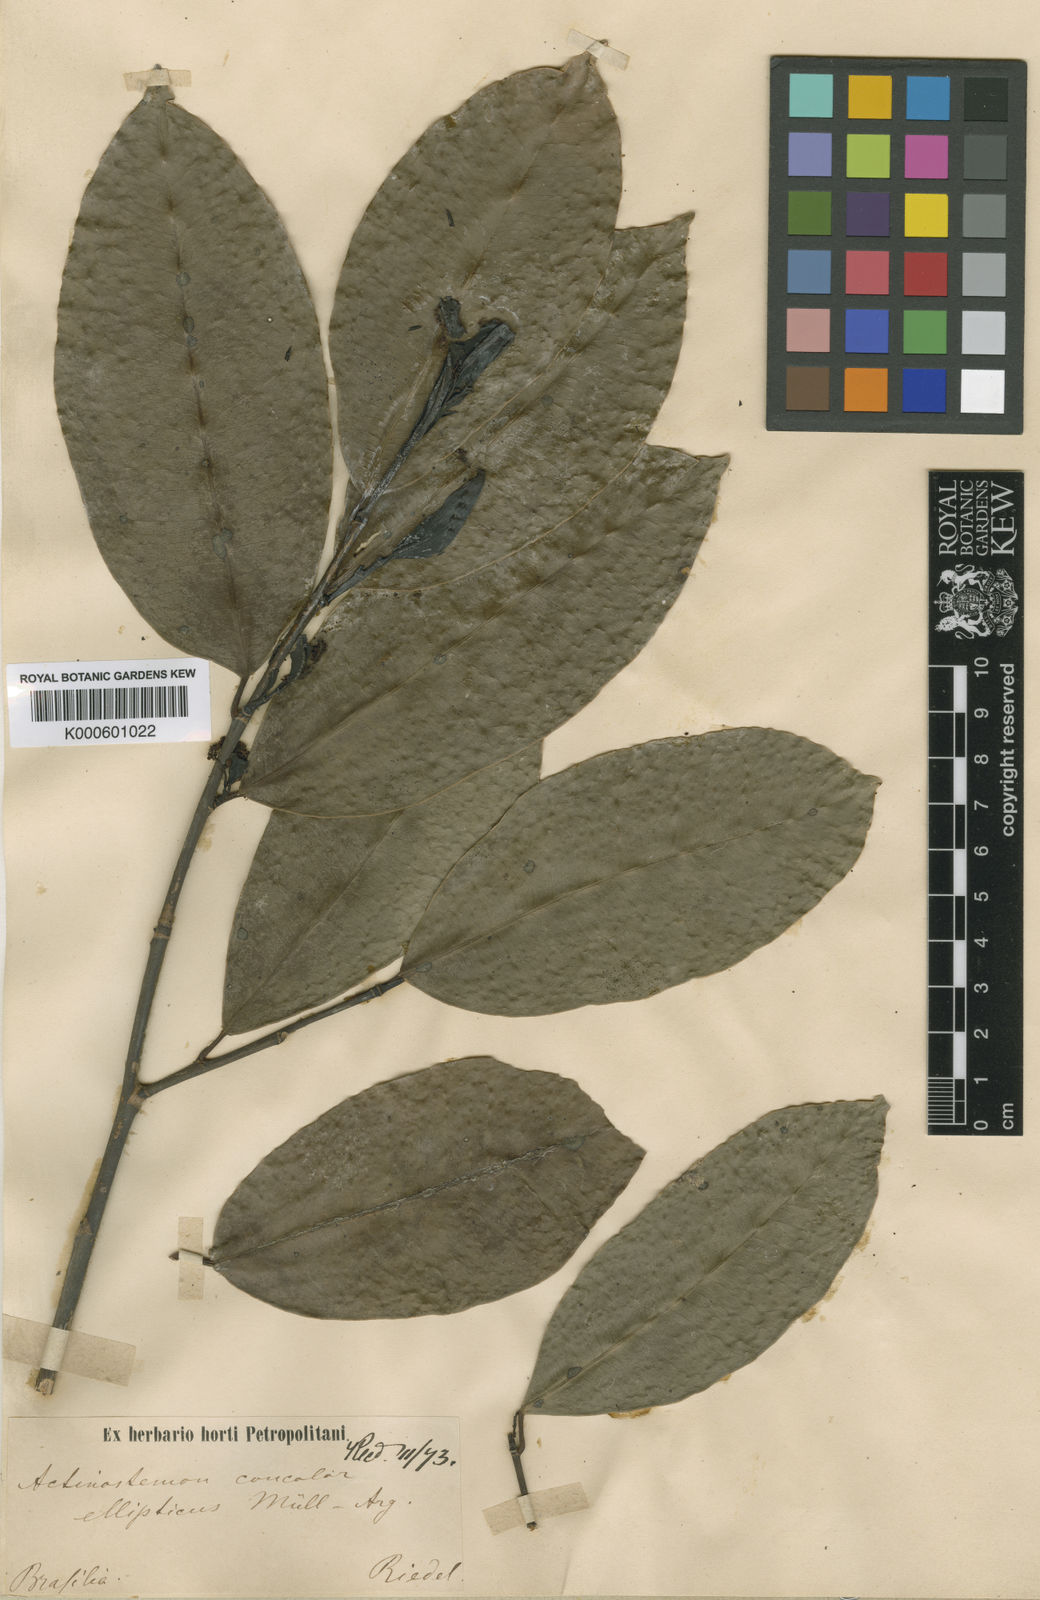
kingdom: Plantae
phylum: Tracheophyta
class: Magnoliopsida
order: Malpighiales
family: Euphorbiaceae
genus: Actinostemon
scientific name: Actinostemon concolor
